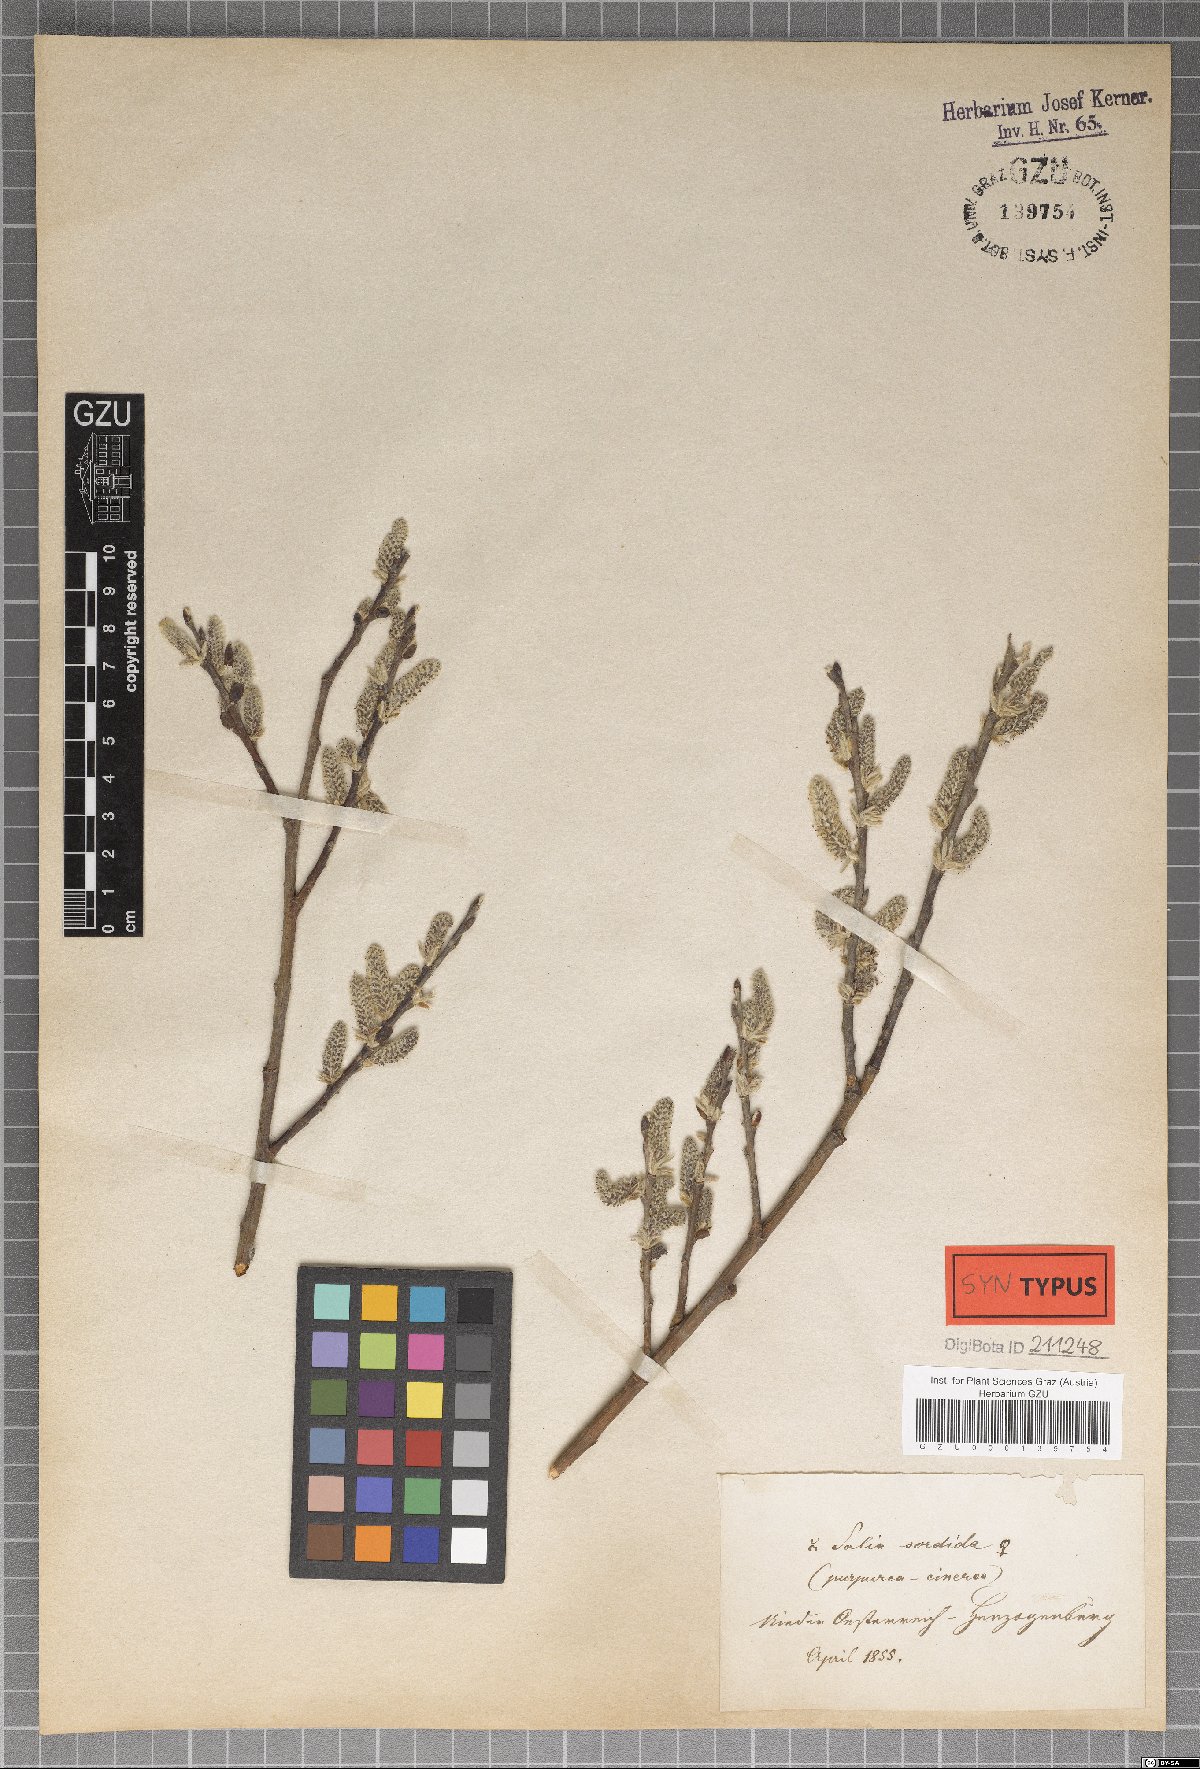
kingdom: Plantae
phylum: Tracheophyta
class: Magnoliopsida
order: Malpighiales
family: Salicaceae
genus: Salix
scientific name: Salix sordida
